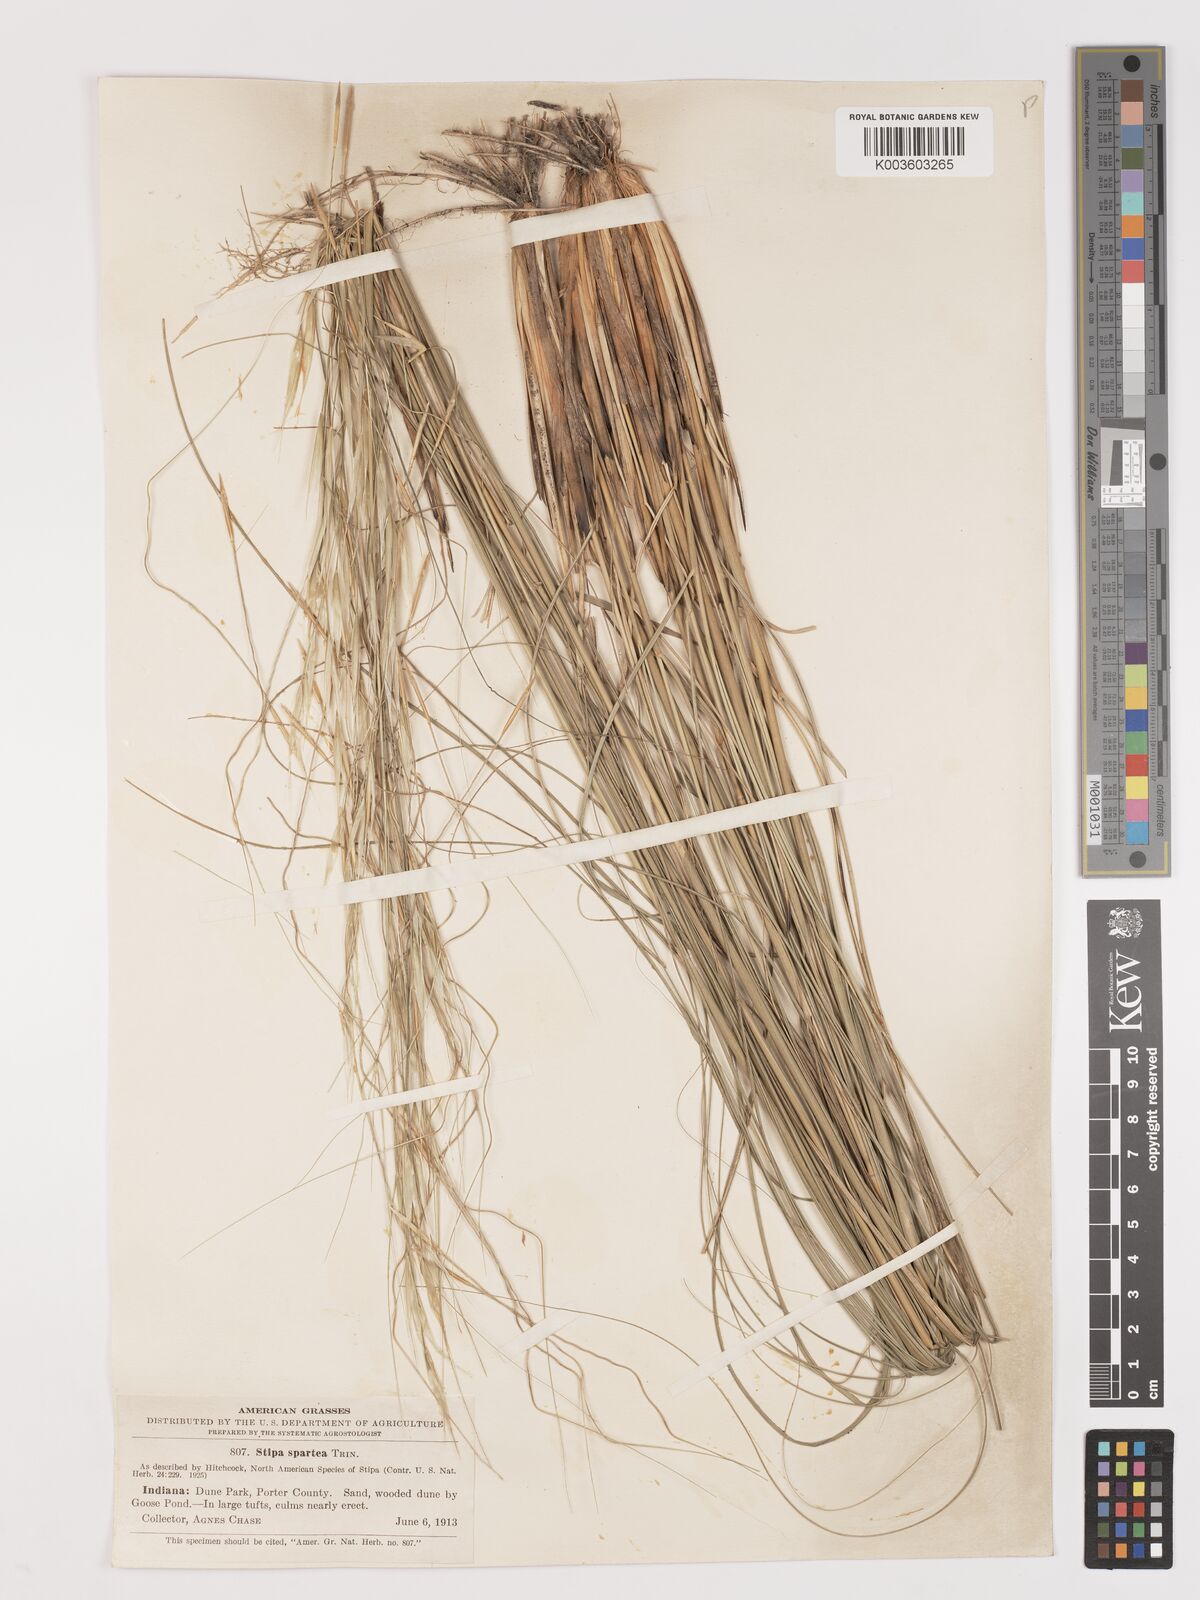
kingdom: Plantae
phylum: Tracheophyta
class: Liliopsida
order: Poales
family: Poaceae
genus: Hesperostipa
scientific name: Hesperostipa spartea
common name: Porcupine grass
